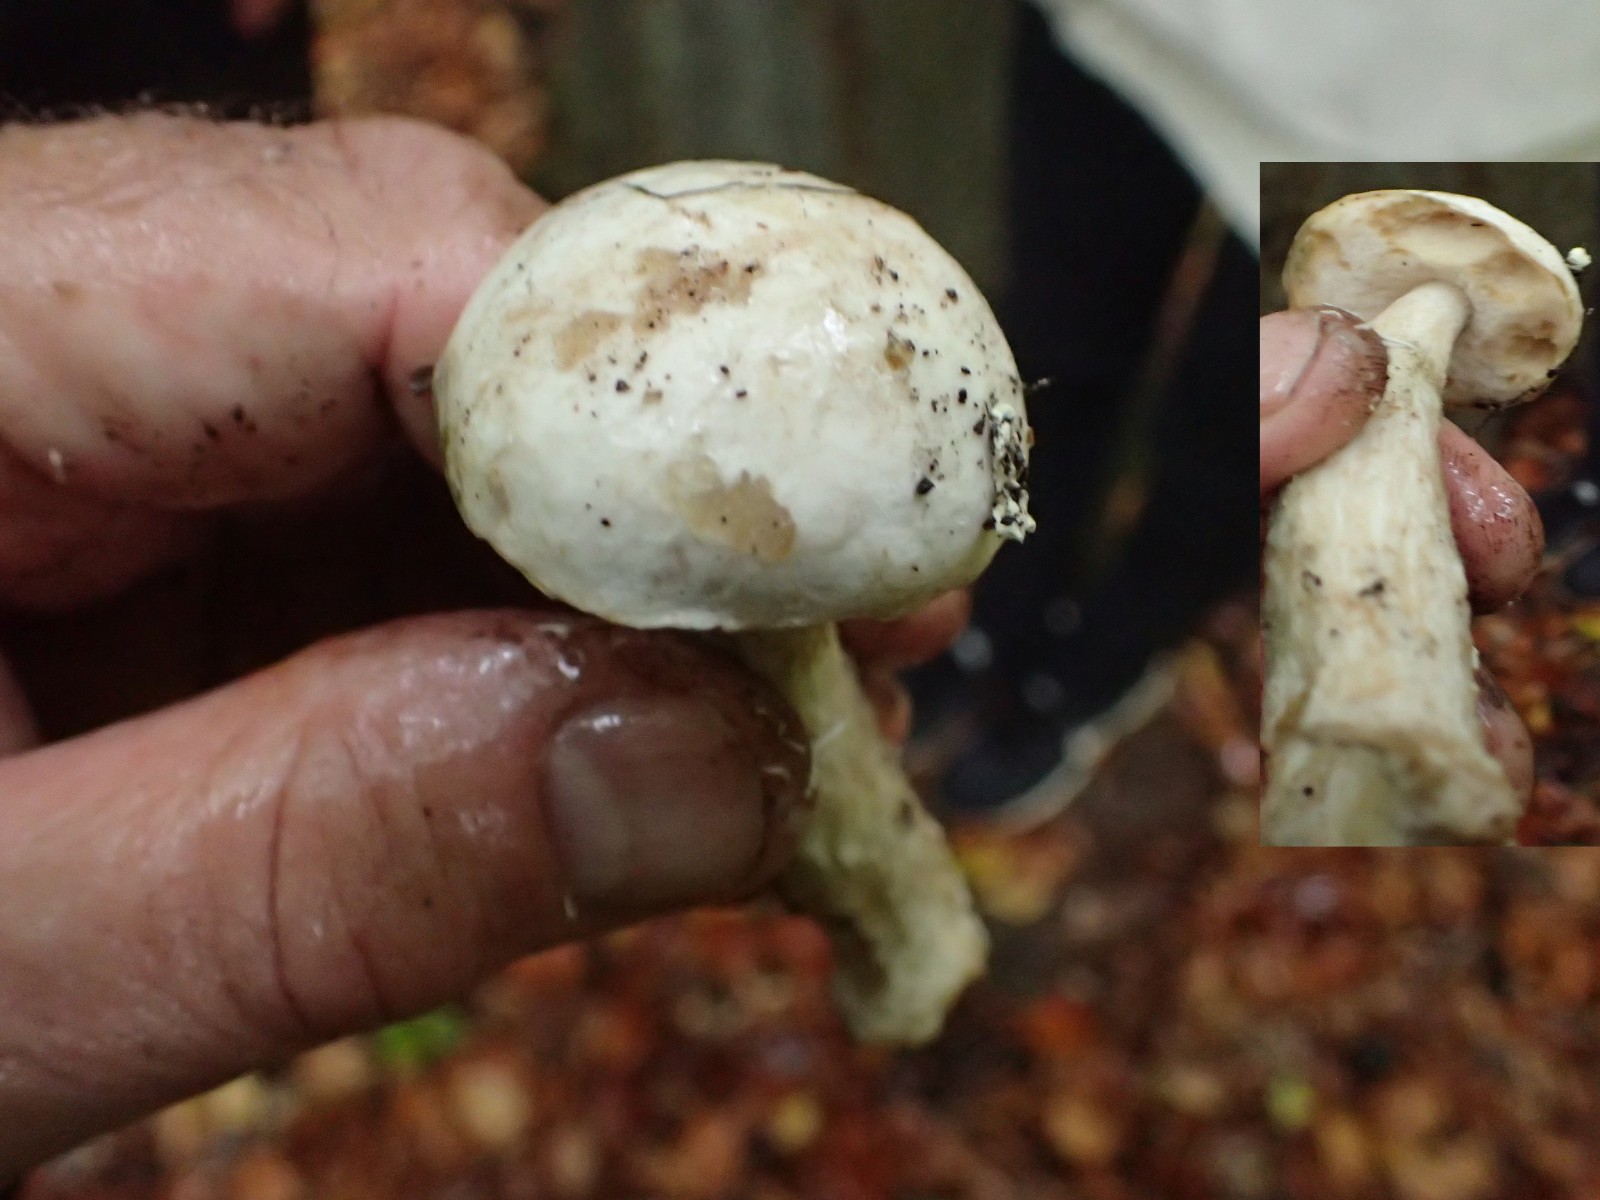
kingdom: Fungi
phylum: Basidiomycota
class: Agaricomycetes
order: Boletales
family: Boletaceae
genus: Leccinum
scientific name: Leccinum scabrum
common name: hvid skælrørhat
